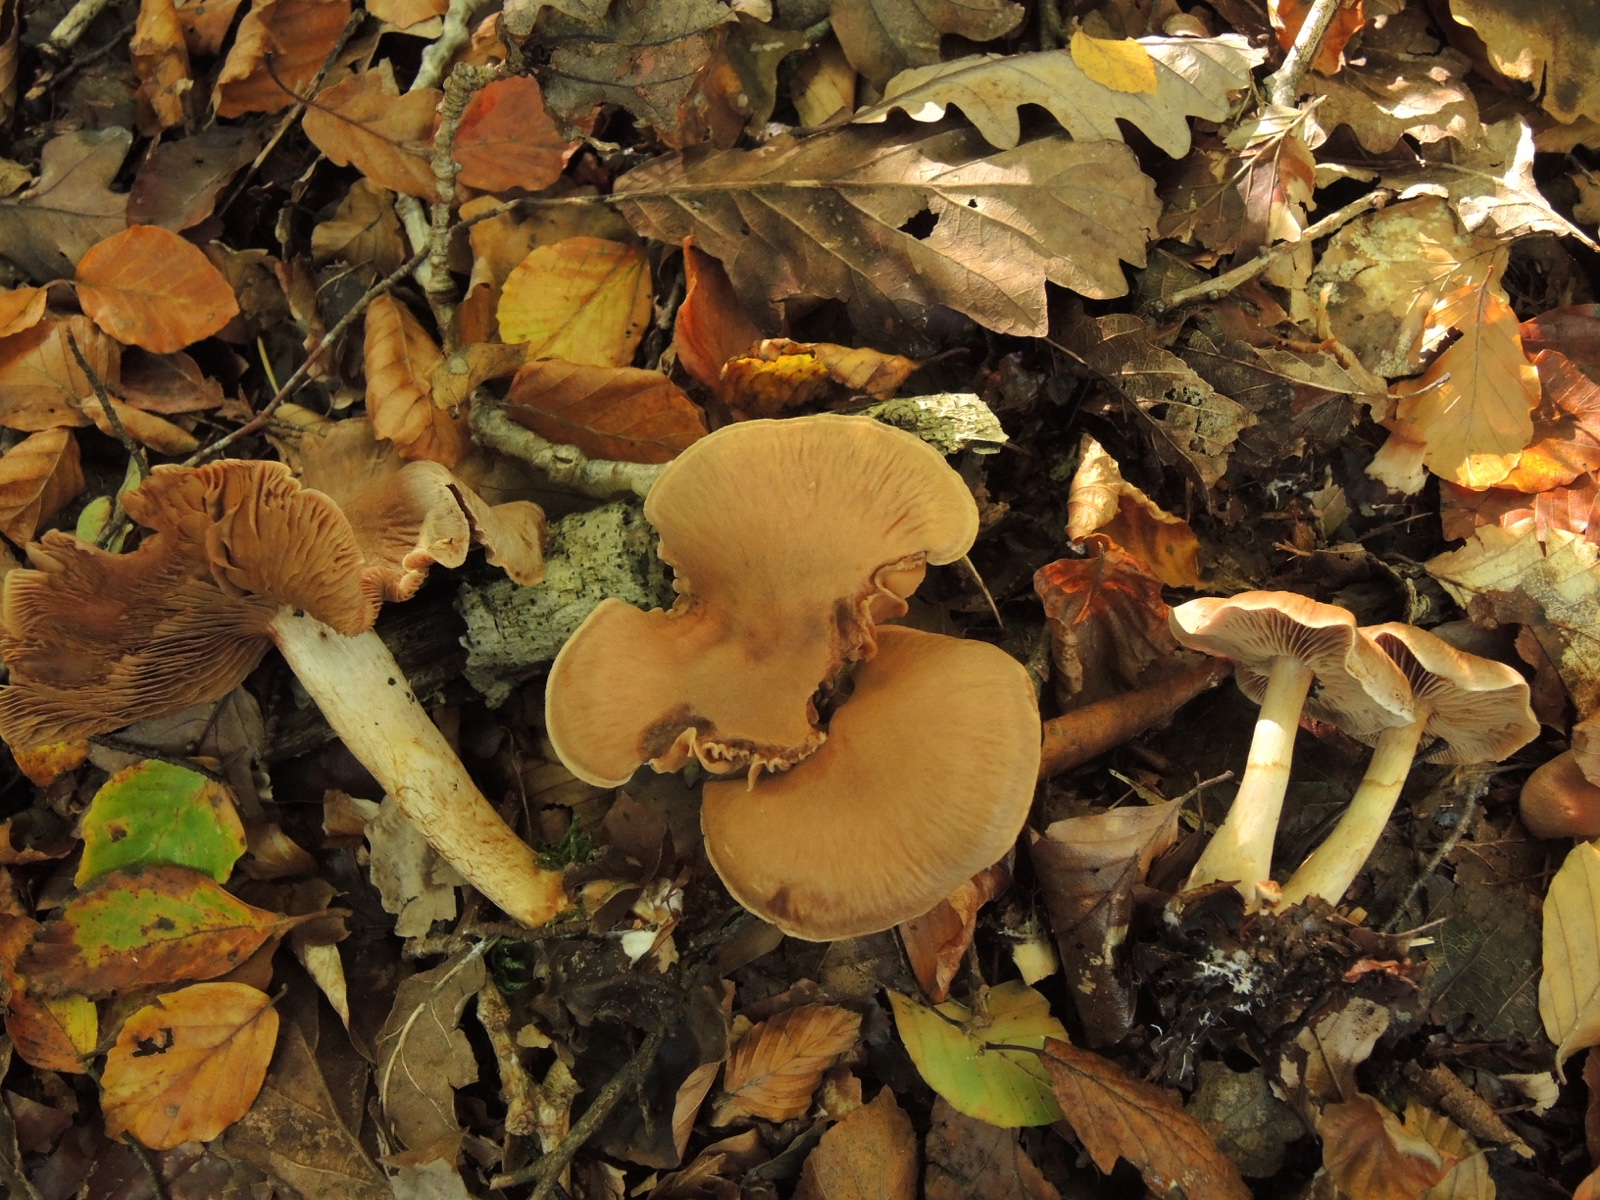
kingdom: Fungi
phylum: Basidiomycota
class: Agaricomycetes
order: Agaricales
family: Cortinariaceae
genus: Cortinarius
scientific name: Cortinarius
